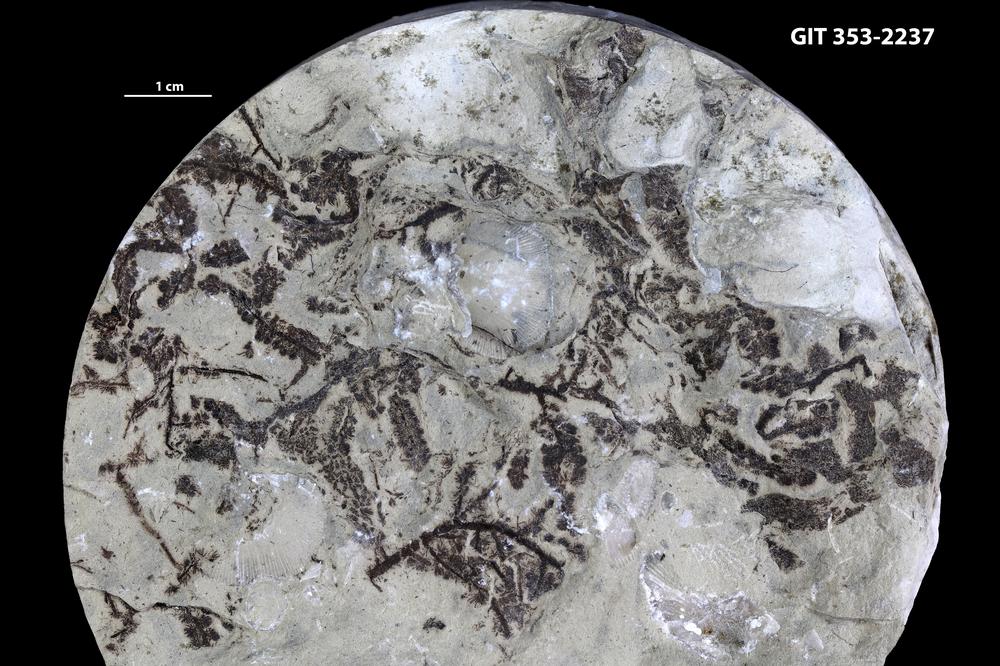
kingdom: Plantae
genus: Leveilleites
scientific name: Leveilleites hartnageli
